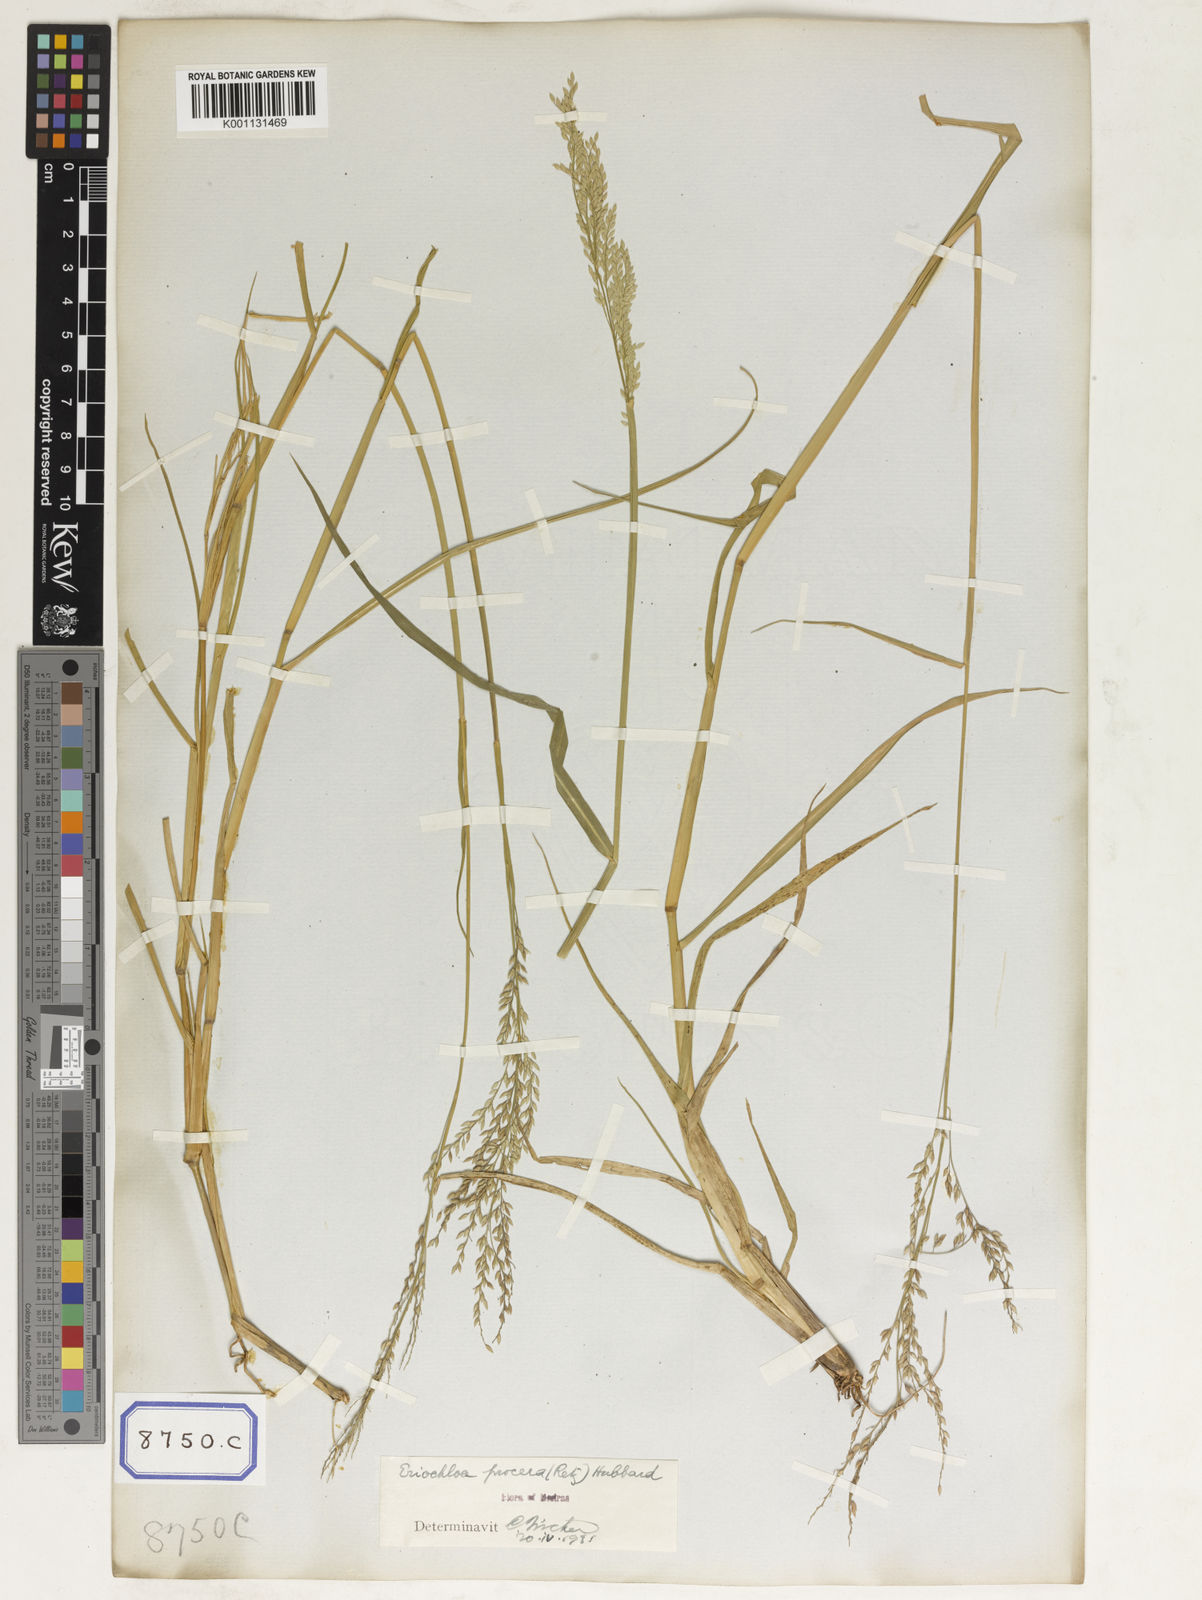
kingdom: Plantae
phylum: Tracheophyta
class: Liliopsida
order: Poales
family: Poaceae
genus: Eriochloa
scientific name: Eriochloa procera
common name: Spring grass
